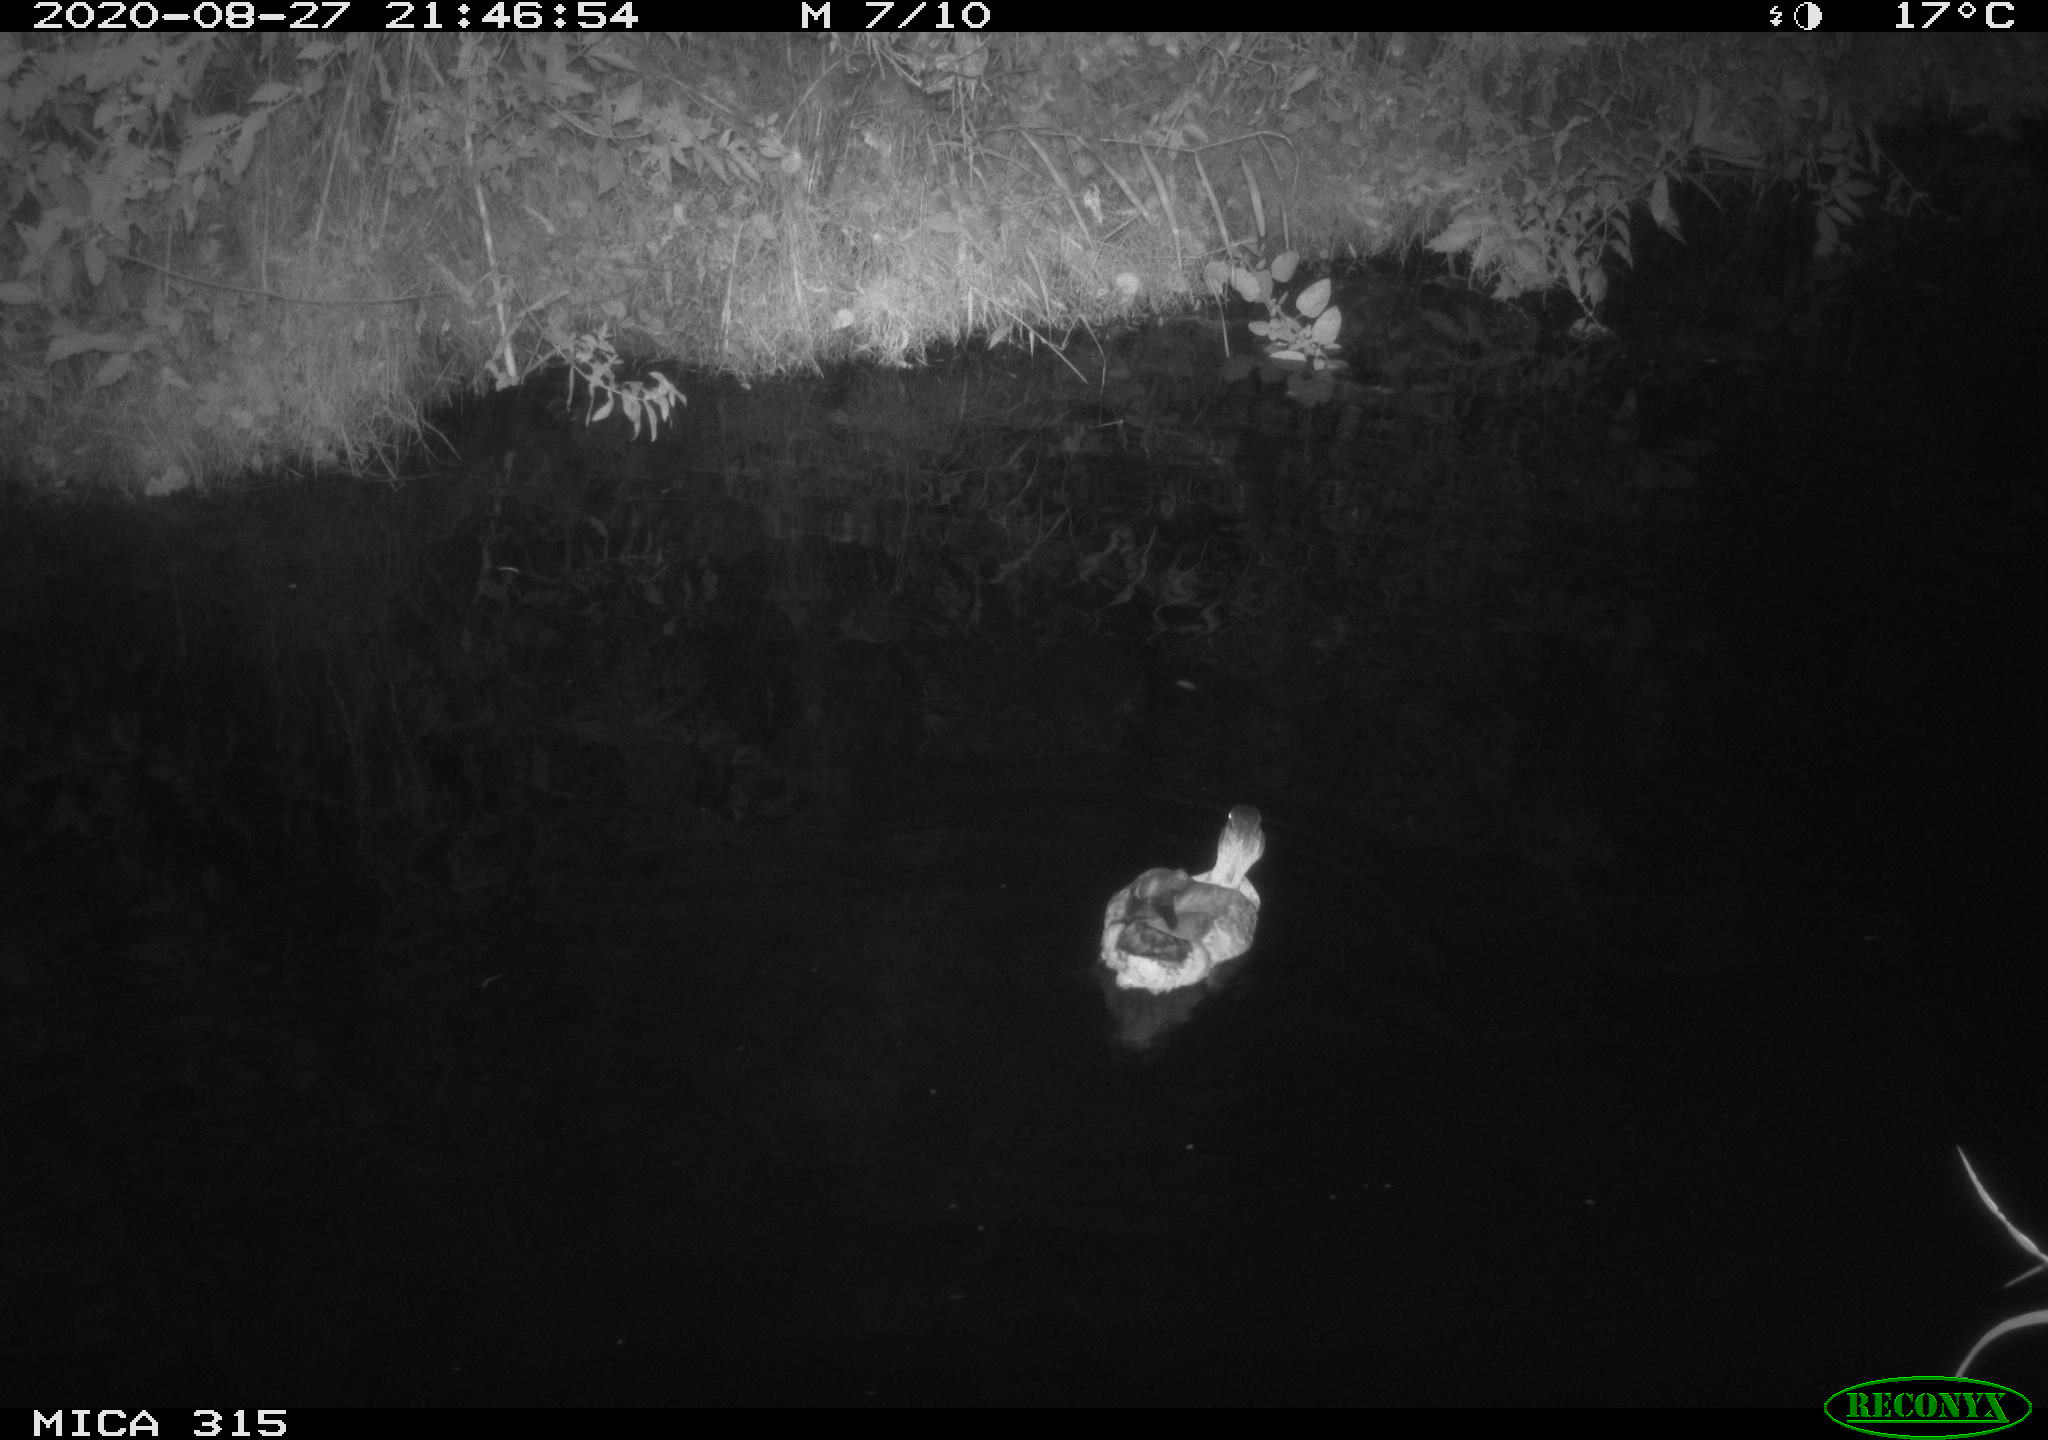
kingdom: Animalia
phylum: Chordata
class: Aves
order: Anseriformes
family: Anatidae
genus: Anas
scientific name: Anas platyrhynchos
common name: Mallard
